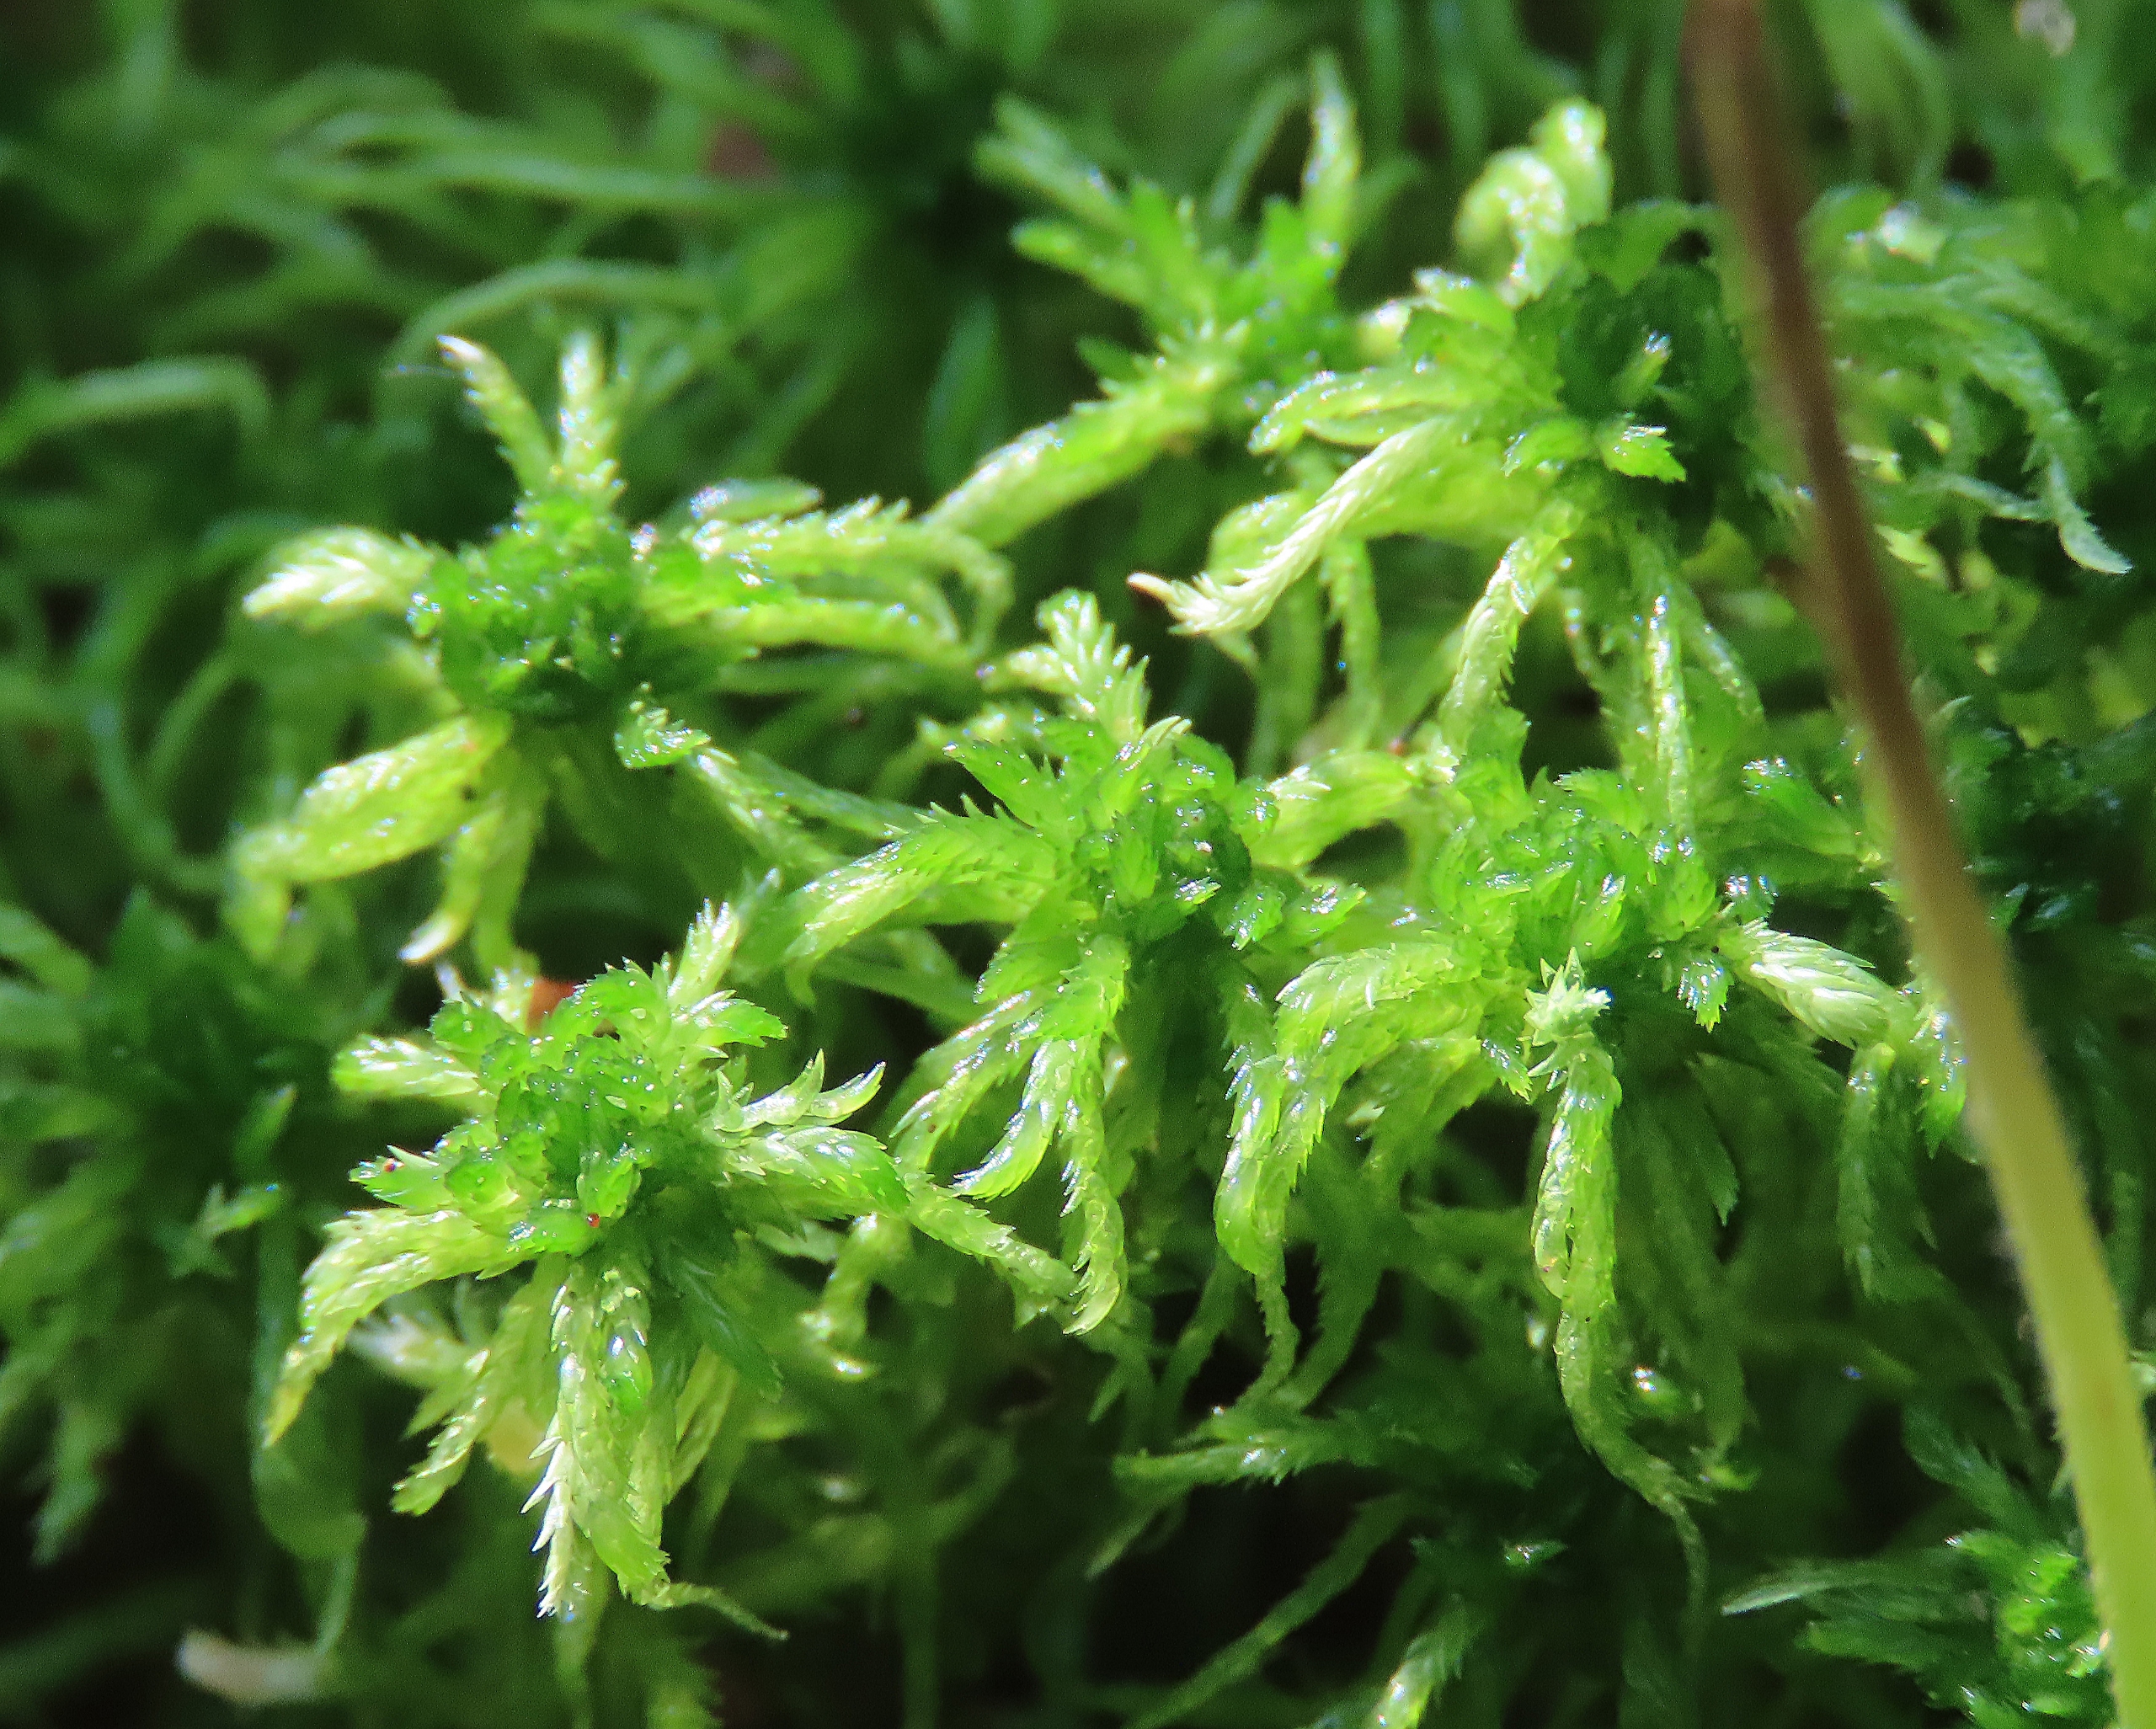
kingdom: Plantae
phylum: Bryophyta
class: Sphagnopsida
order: Sphagnales
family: Sphagnaceae
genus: Sphagnum
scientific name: Sphagnum contortum
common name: Krumbladet tørvemos
